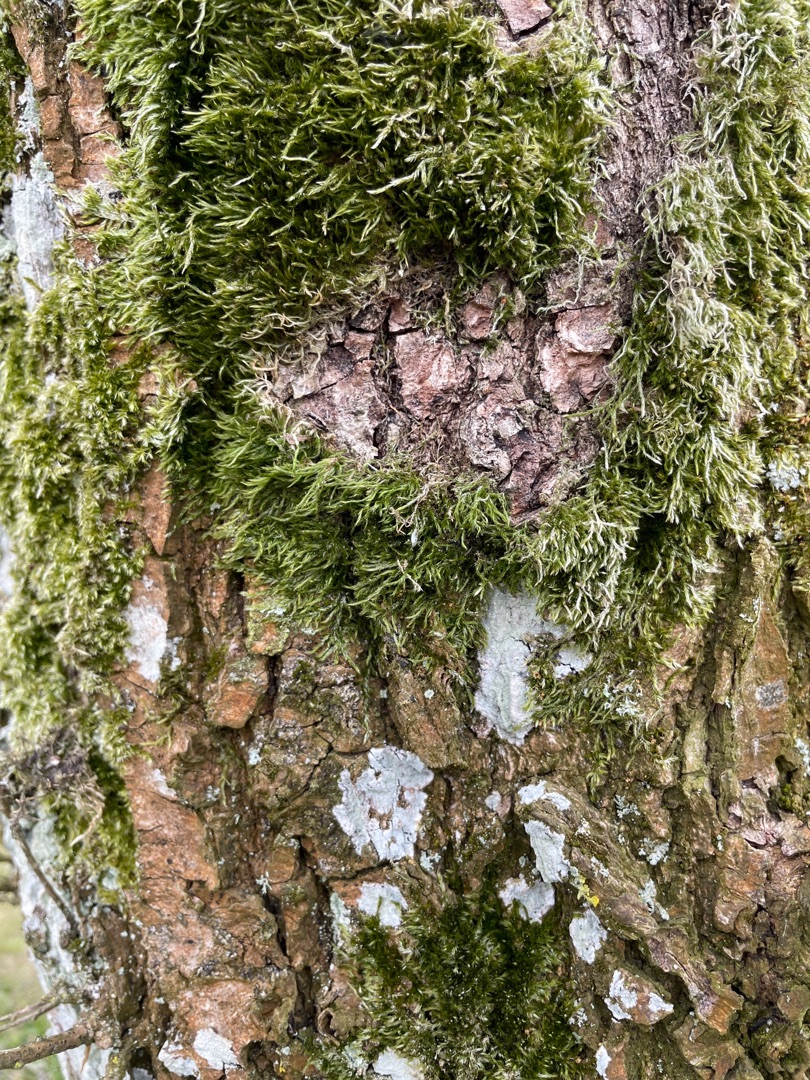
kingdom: Plantae
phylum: Bryophyta
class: Bryopsida
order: Hypnales
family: Hypnaceae
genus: Hypnum
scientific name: Hypnum
